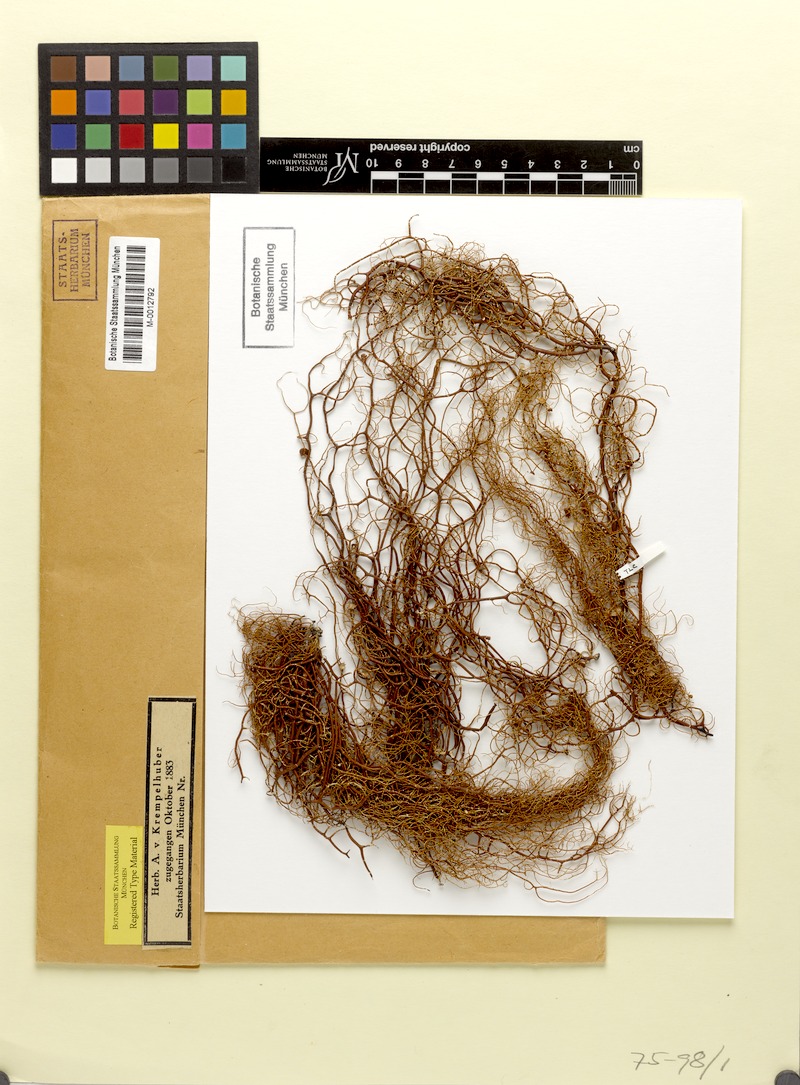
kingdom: Fungi
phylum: Ascomycota
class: Lecanoromycetes
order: Lecanorales
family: Parmeliaceae
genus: Usnea
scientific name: Usnea nidifica
